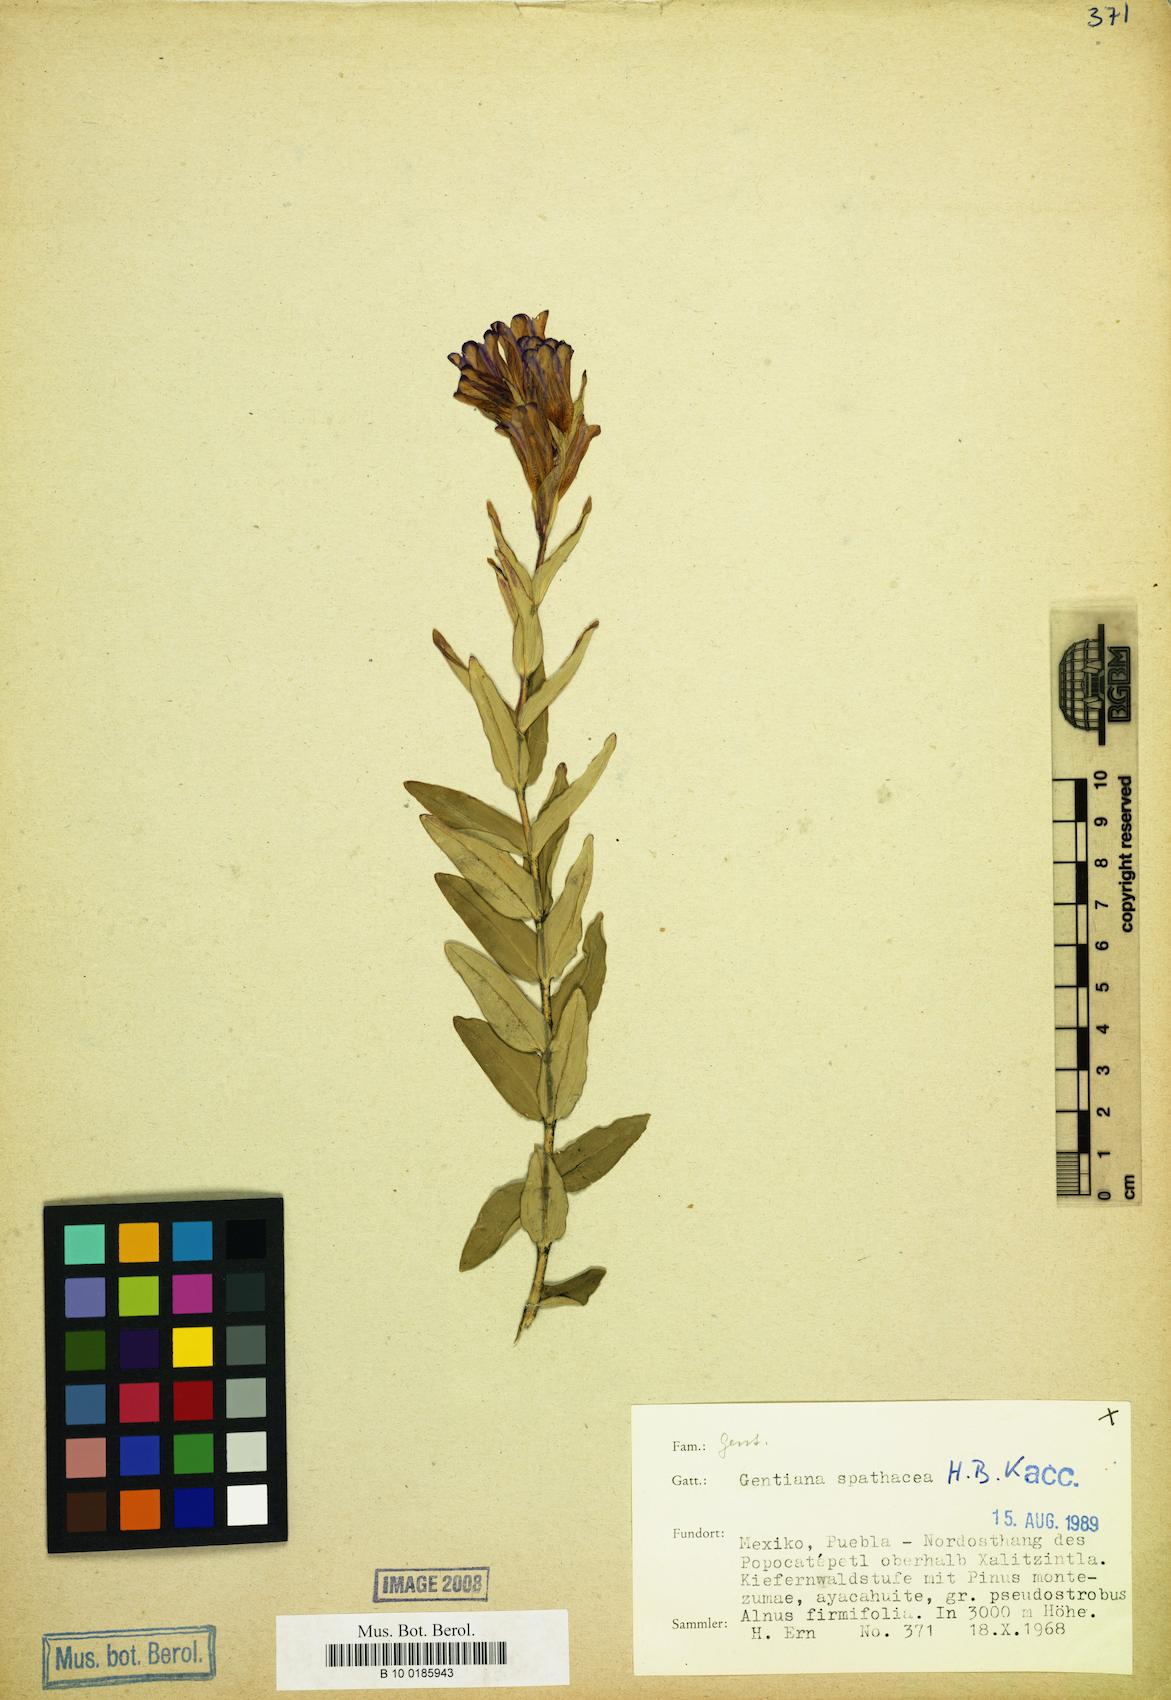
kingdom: Plantae
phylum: Tracheophyta
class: Magnoliopsida
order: Gentianales
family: Gentianaceae
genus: Gentiana
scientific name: Gentiana spathacea
